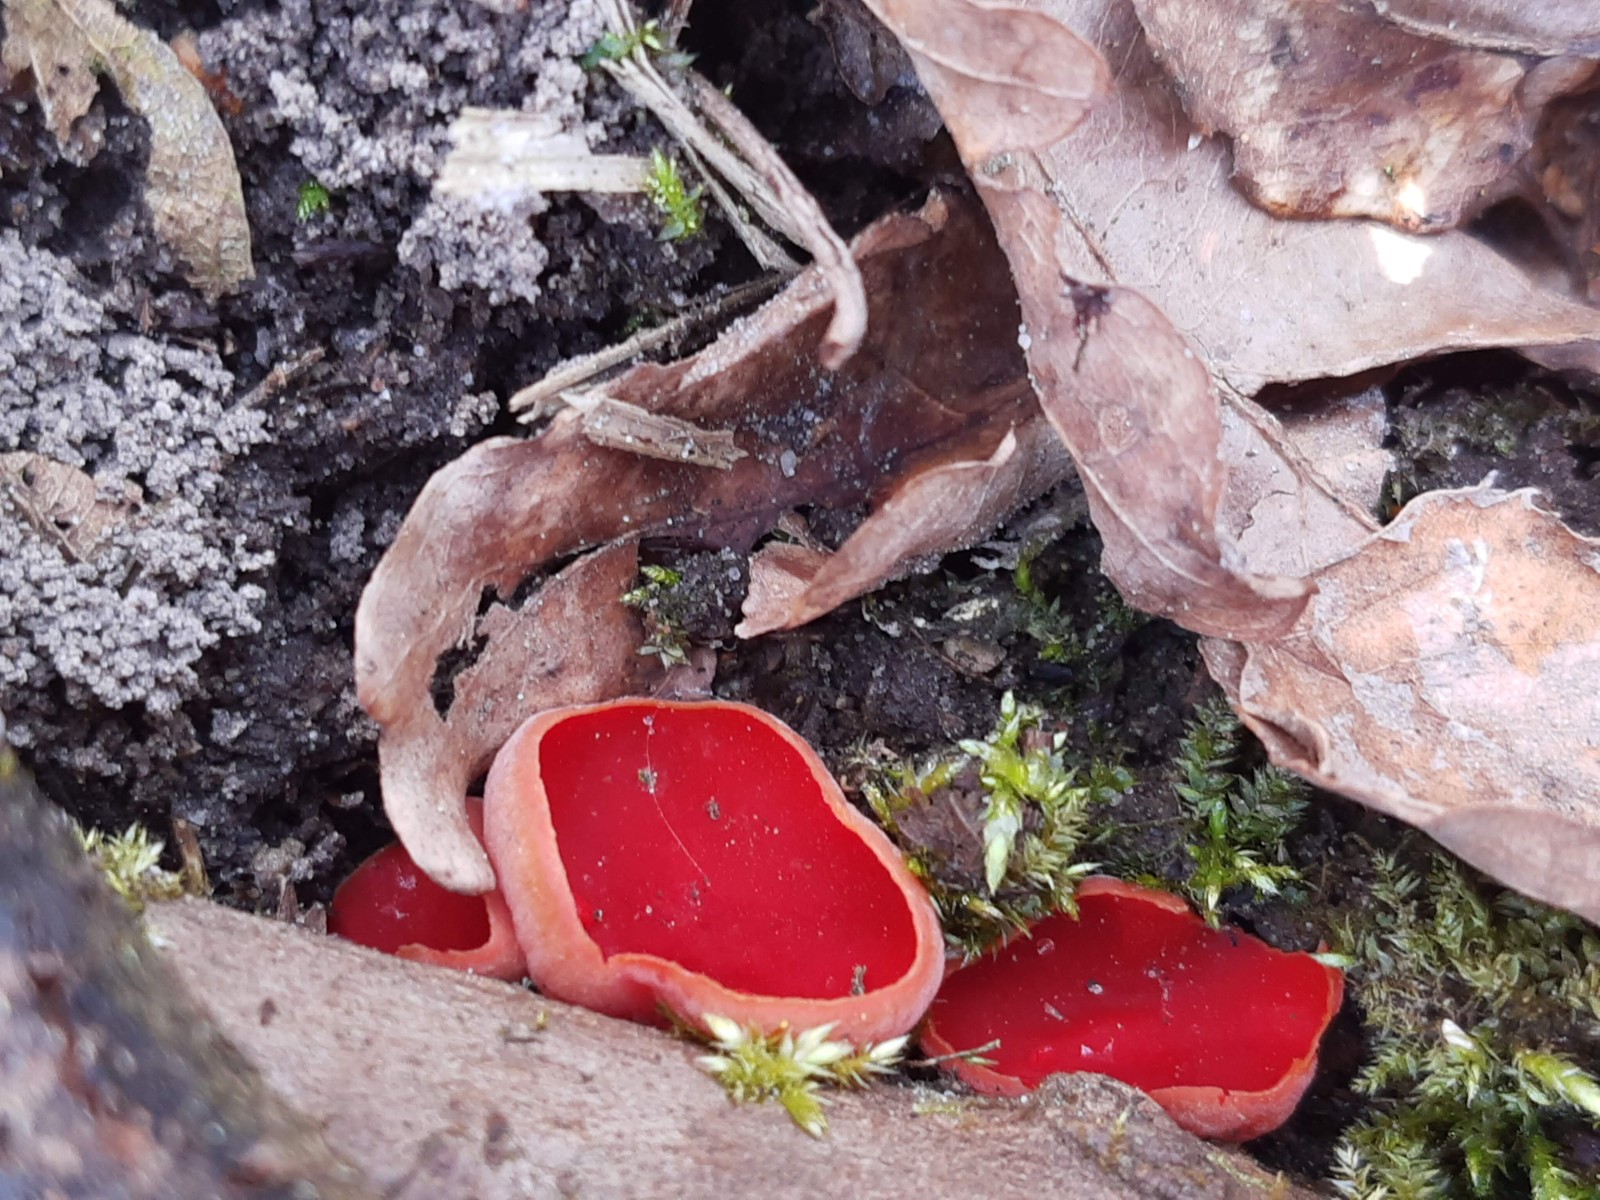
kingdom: Fungi
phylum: Ascomycota
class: Pezizomycetes
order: Pezizales
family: Sarcoscyphaceae
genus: Sarcoscypha
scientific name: Sarcoscypha austriaca
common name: krølhåret pragtbæger
